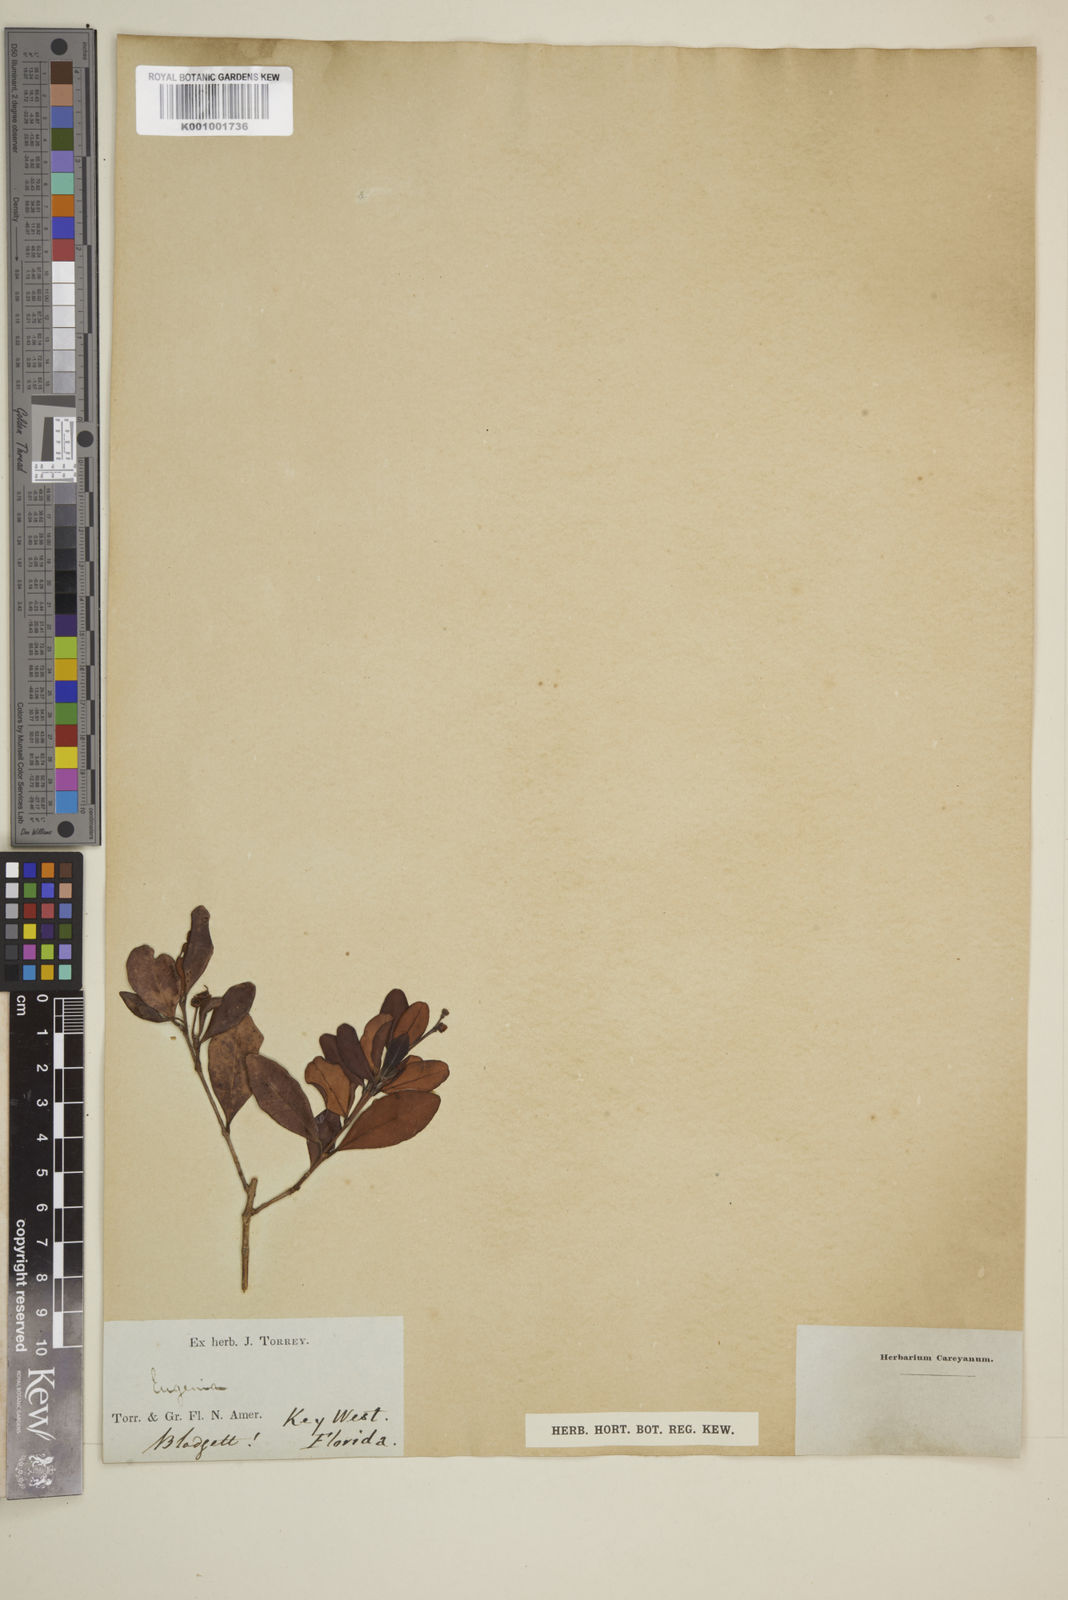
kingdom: Plantae
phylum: Tracheophyta
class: Magnoliopsida
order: Myrtales
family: Myrtaceae
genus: Eugenia
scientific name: Eugenia
